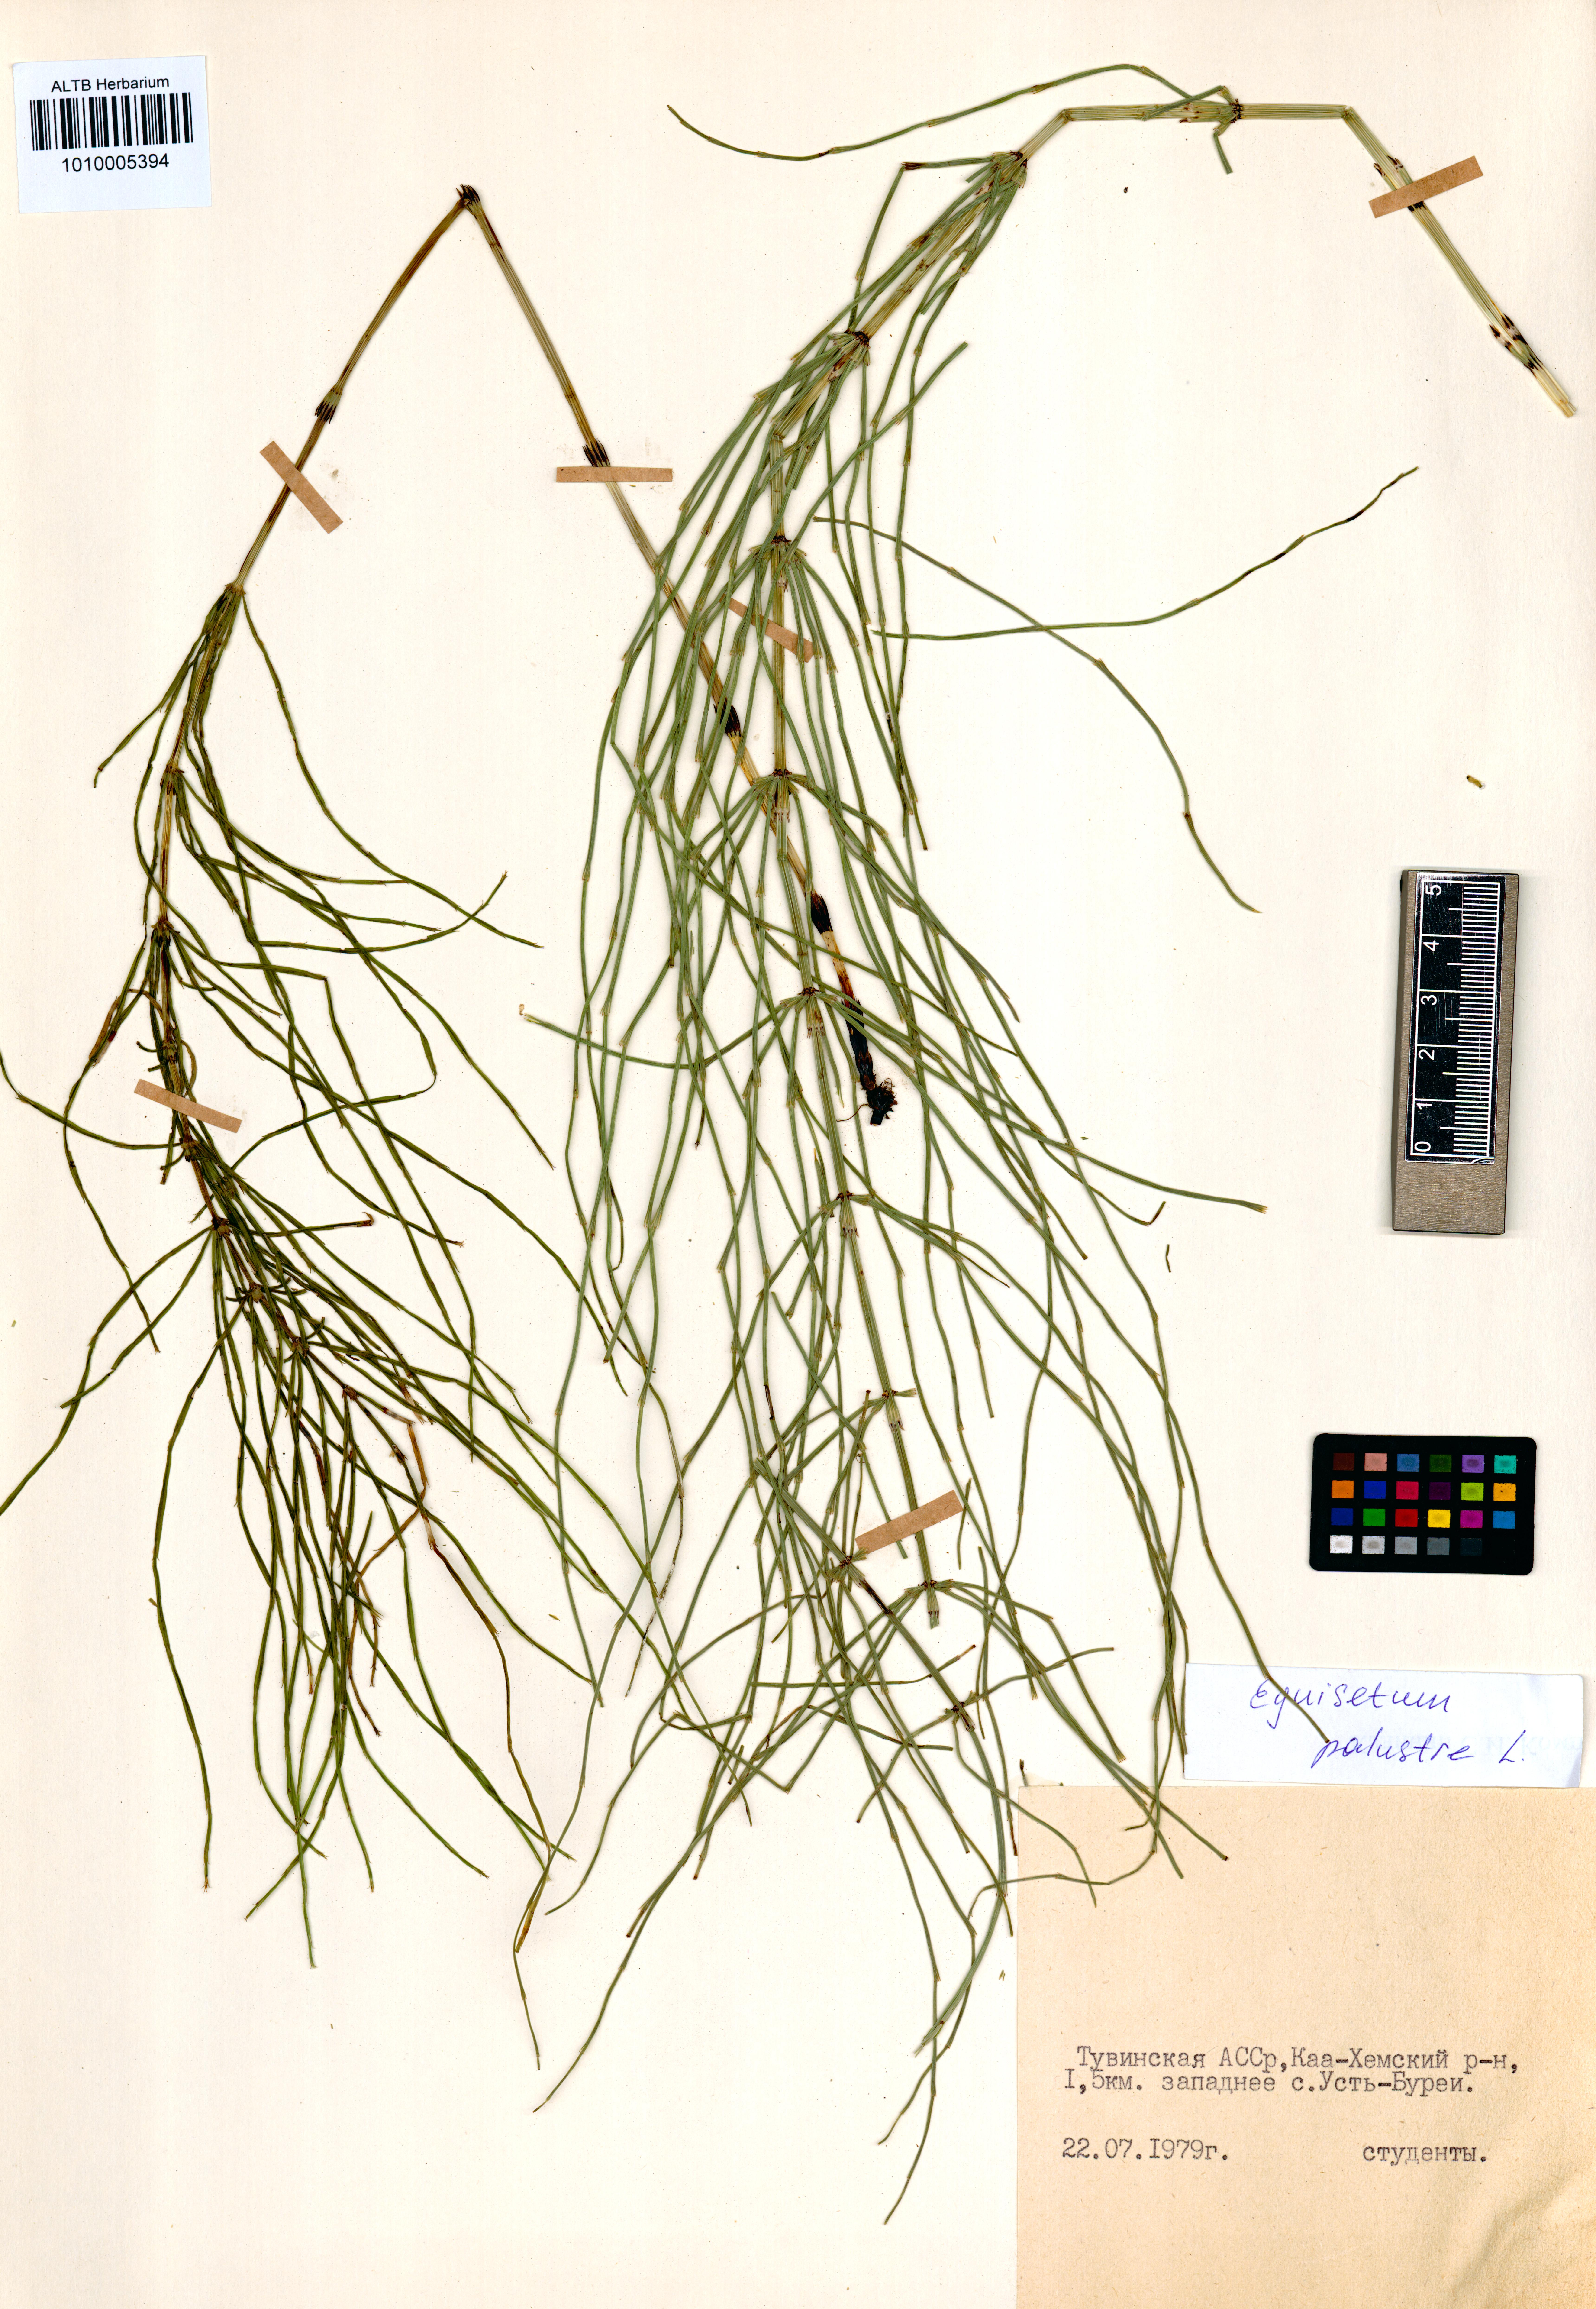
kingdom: Plantae
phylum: Tracheophyta
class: Polypodiopsida
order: Equisetales
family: Equisetaceae
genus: Equisetum
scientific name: Equisetum palustre
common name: Marsh horsetail
